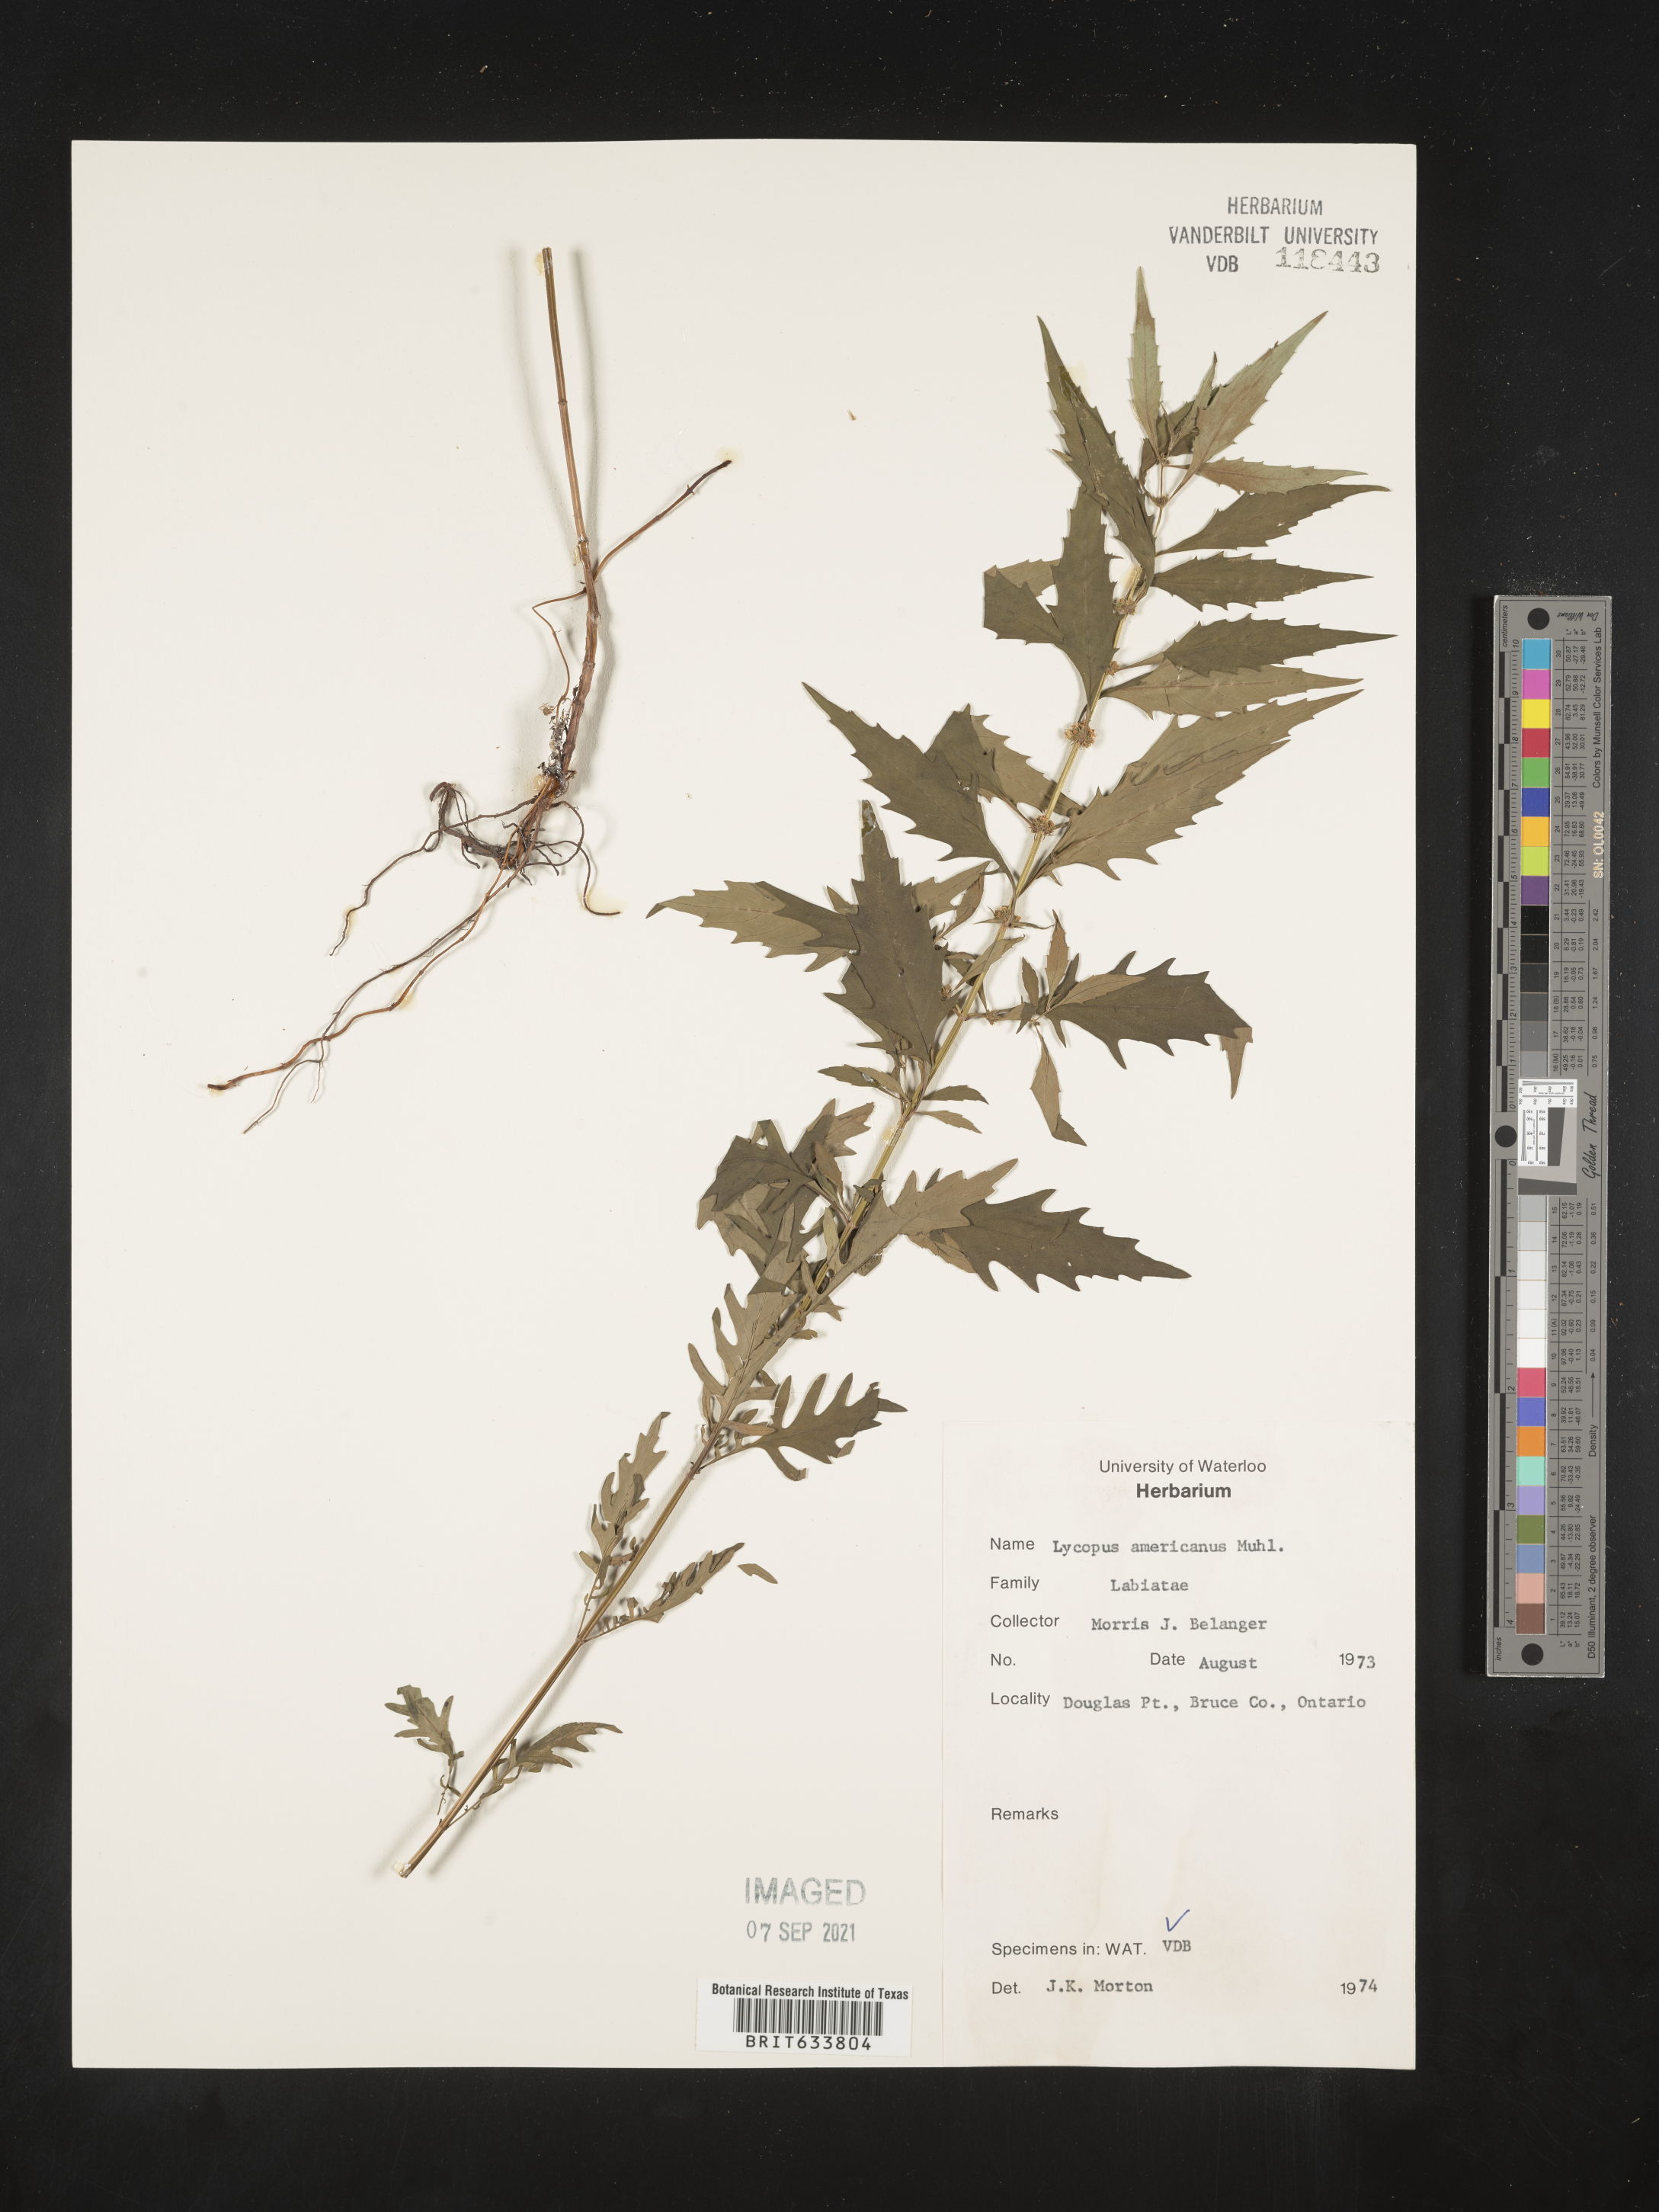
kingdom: Plantae
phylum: Tracheophyta
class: Magnoliopsida
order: Lamiales
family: Lamiaceae
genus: Lycopus
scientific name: Lycopus
